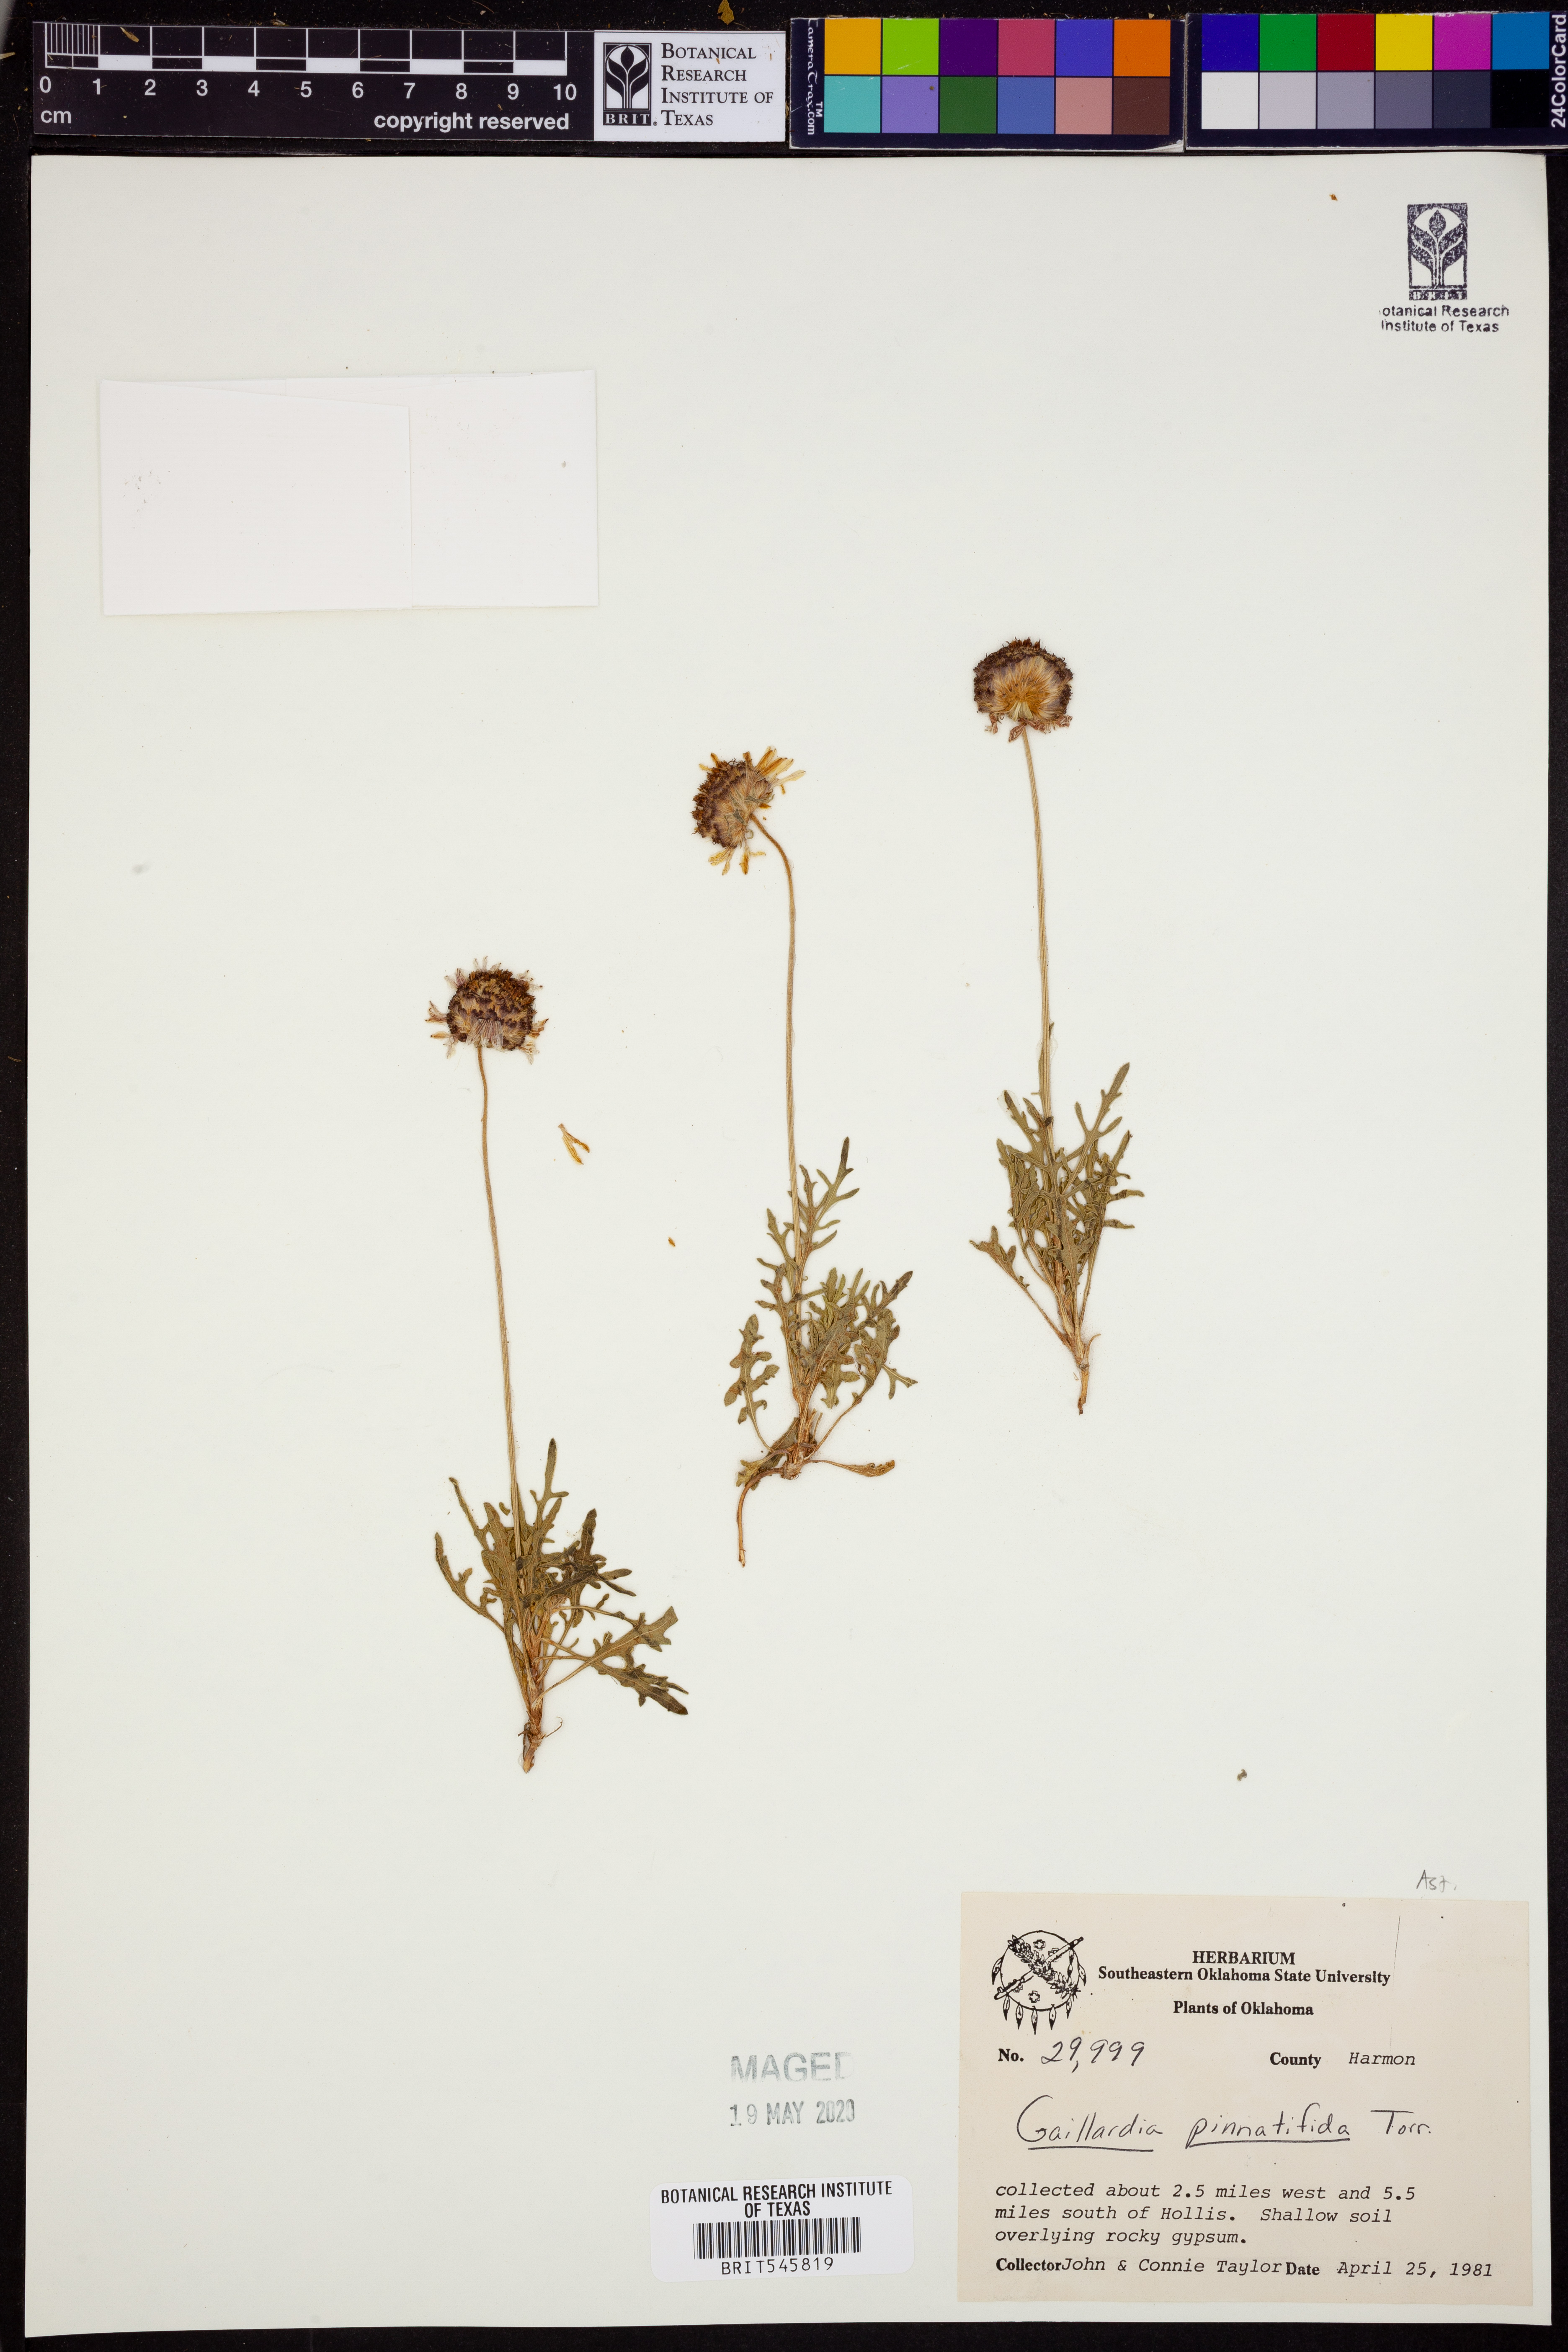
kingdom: Plantae
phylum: Tracheophyta
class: Magnoliopsida
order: Asterales
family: Asteraceae
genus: Gaillardia
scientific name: Gaillardia pinnatifida
